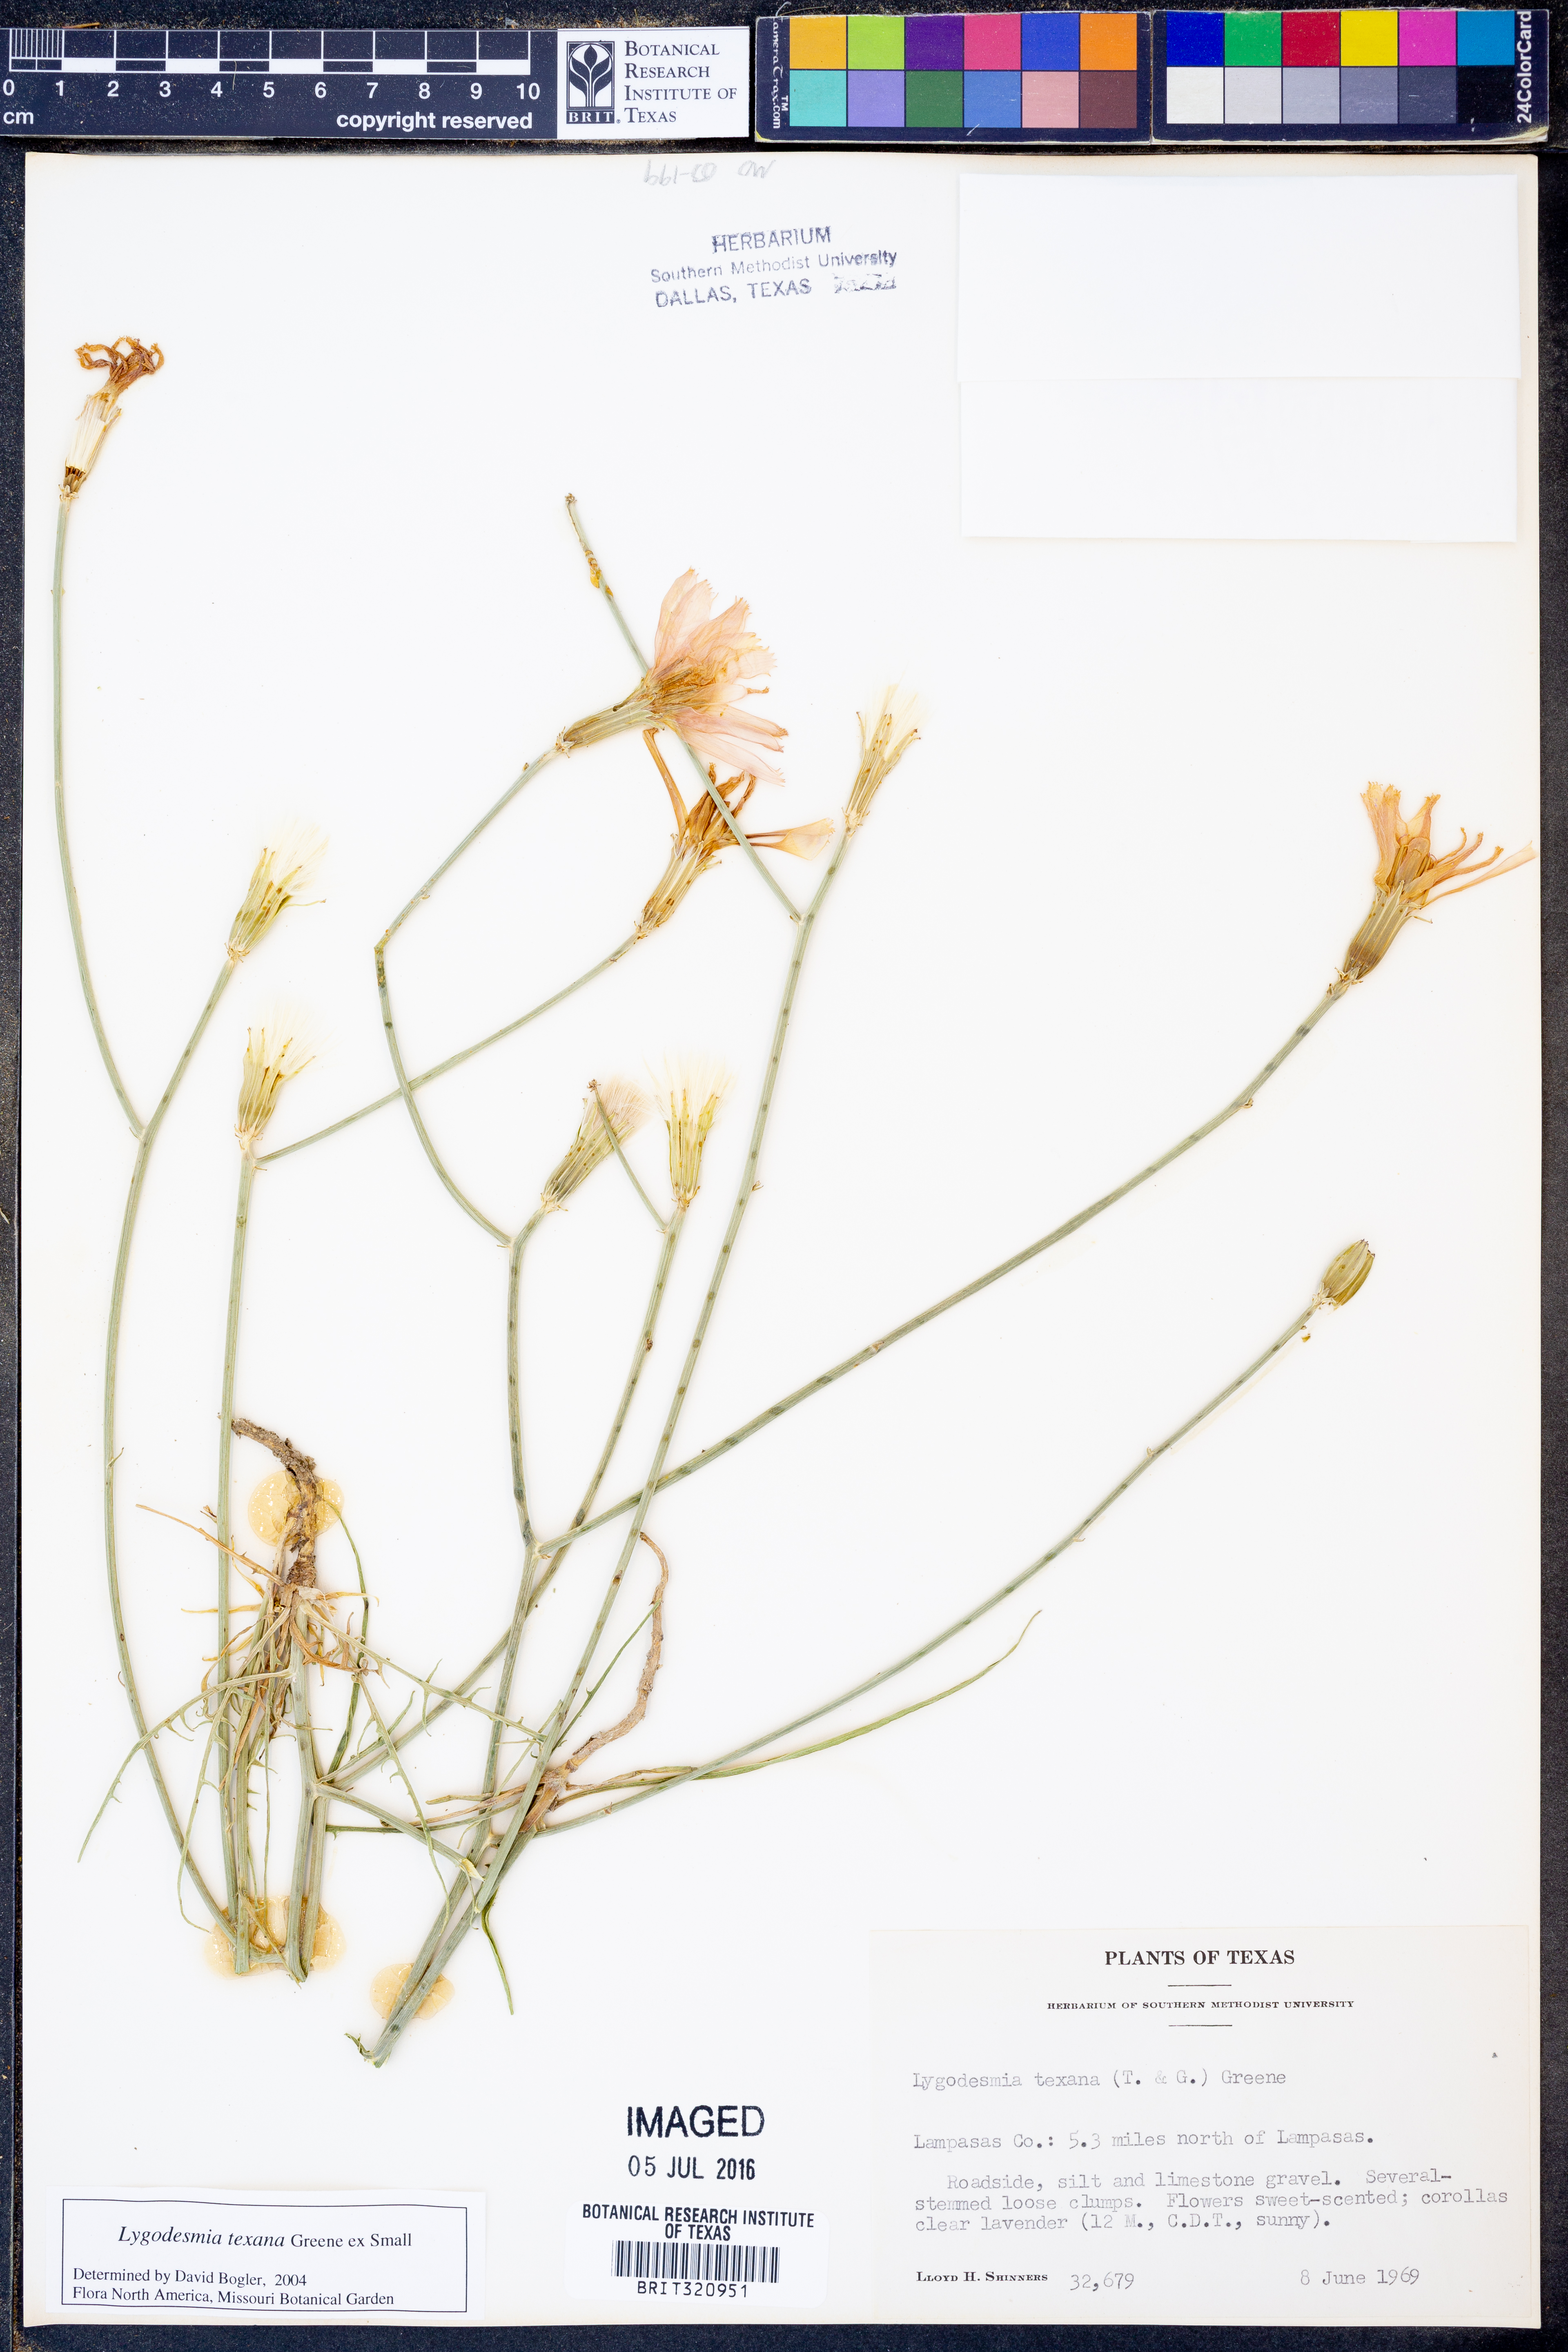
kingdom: Plantae
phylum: Tracheophyta
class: Magnoliopsida
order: Asterales
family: Asteraceae
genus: Lygodesmia
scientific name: Lygodesmia texana
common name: Texas skeleton-plant
